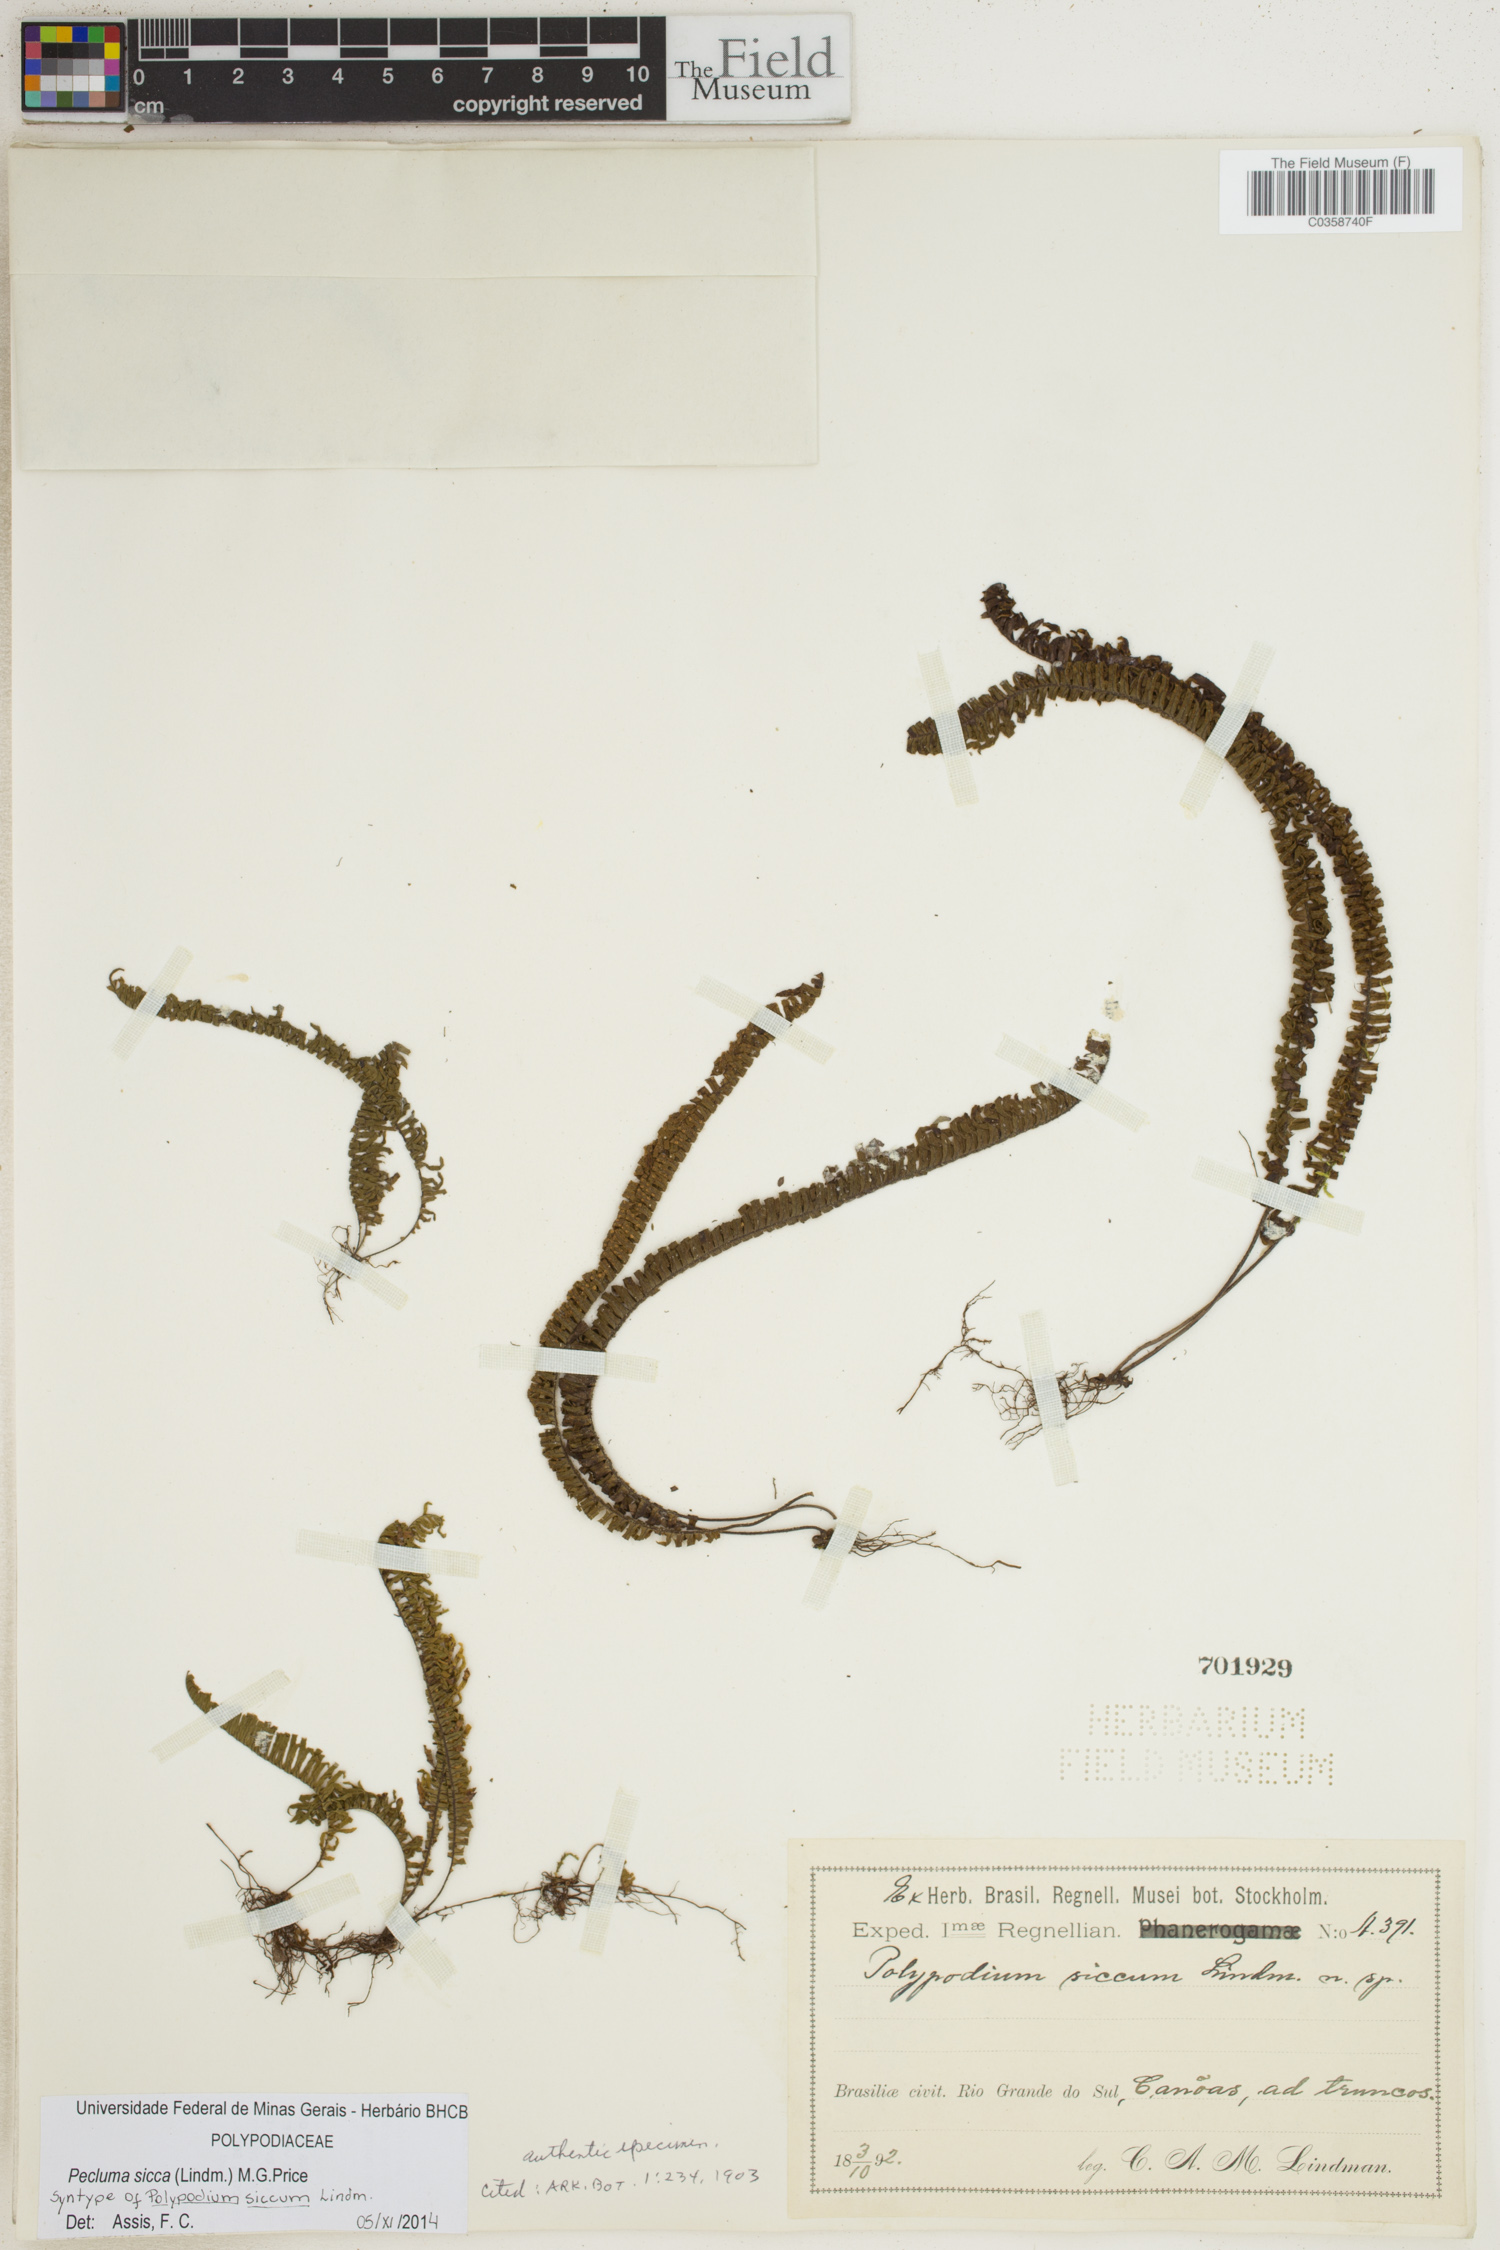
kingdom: Plantae
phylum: Tracheophyta
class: Polypodiopsida
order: Polypodiales
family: Polypodiaceae
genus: Pecluma
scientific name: Pecluma sicca
